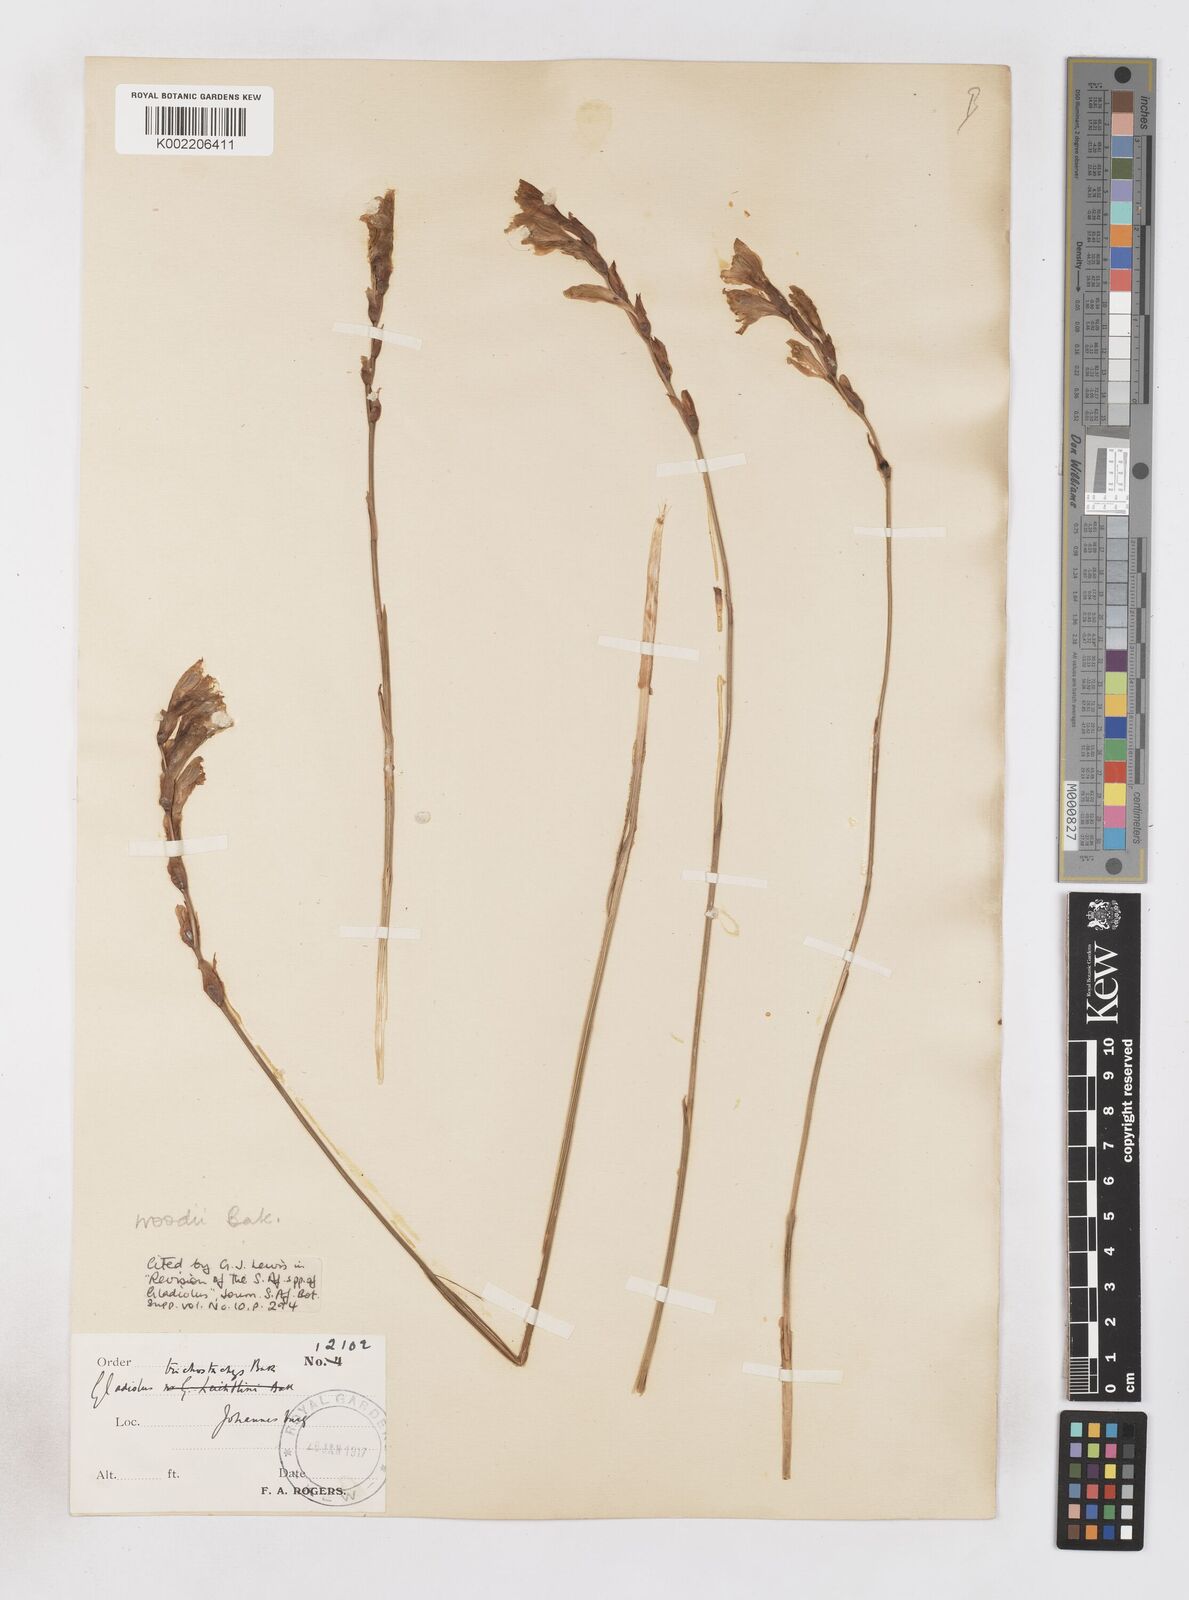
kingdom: Plantae
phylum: Tracheophyta
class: Liliopsida
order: Asparagales
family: Iridaceae
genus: Gladiolus
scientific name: Gladiolus woodii
